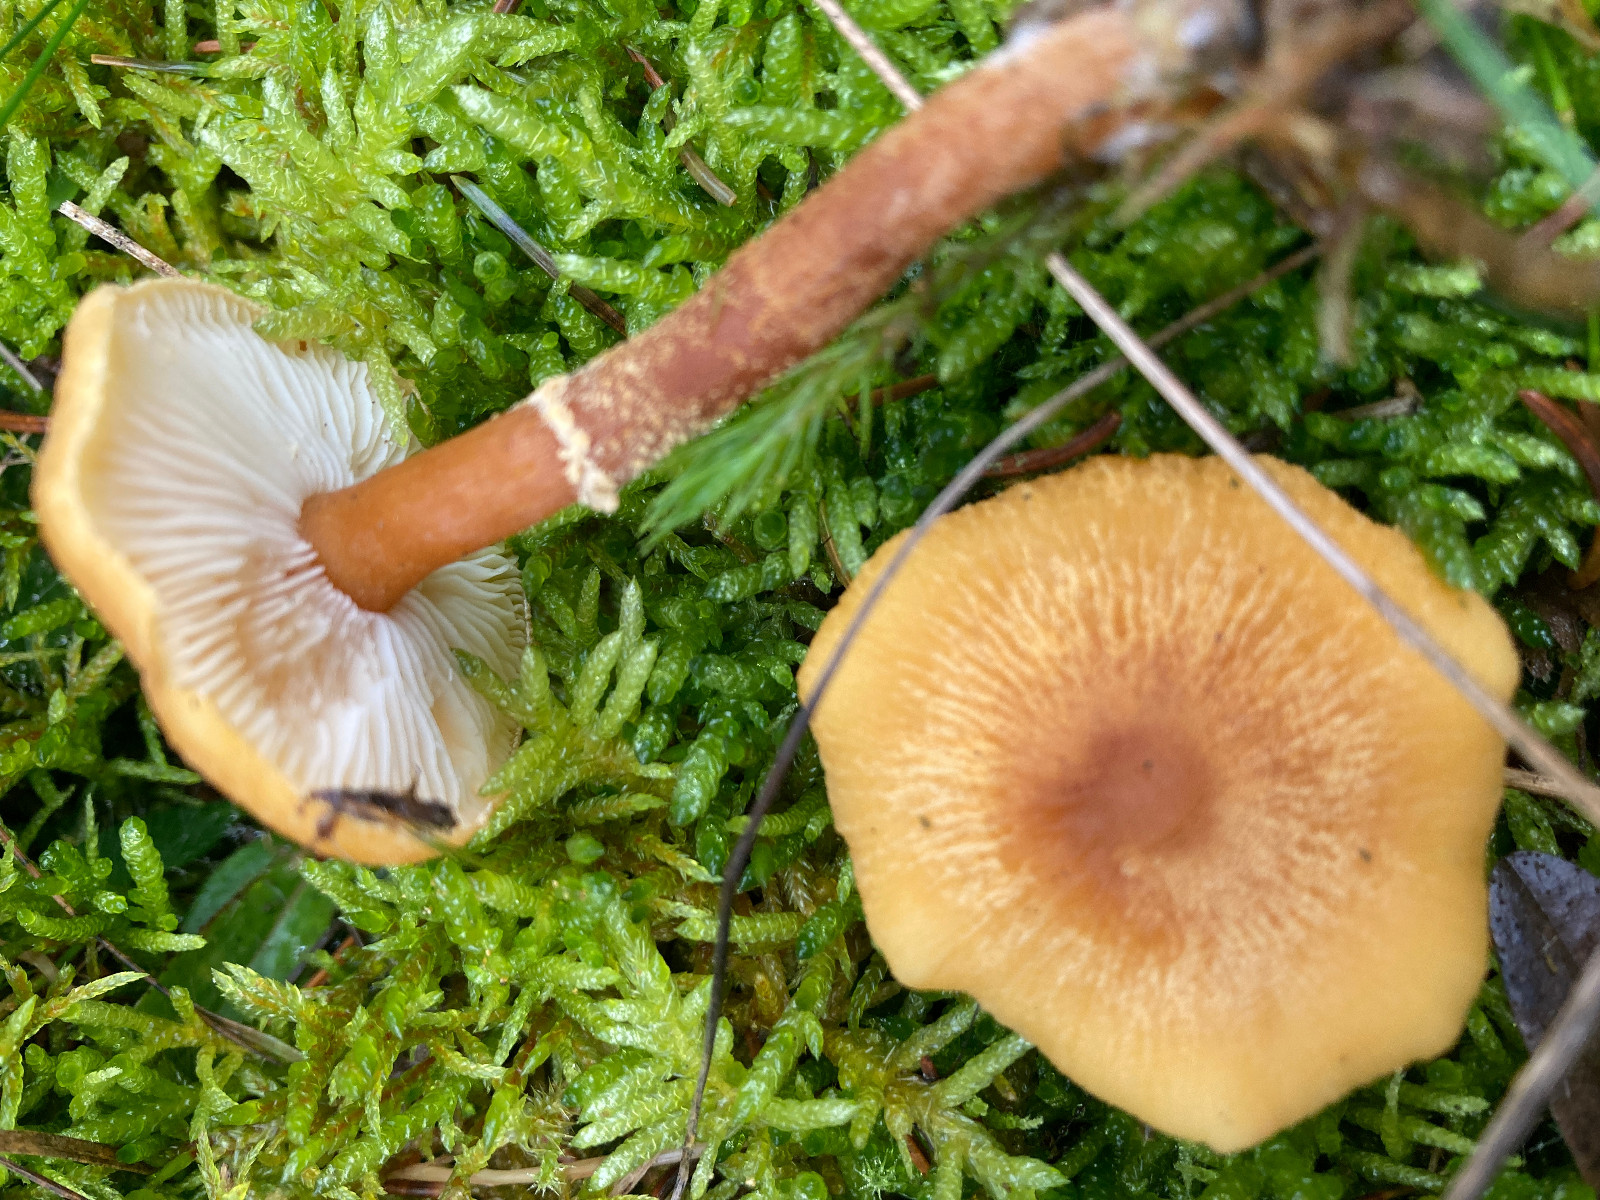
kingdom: Fungi
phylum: Basidiomycota
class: Agaricomycetes
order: Agaricales
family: Tricholomataceae
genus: Cystoderma
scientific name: Cystoderma amianthinum
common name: okkergul grynhat
